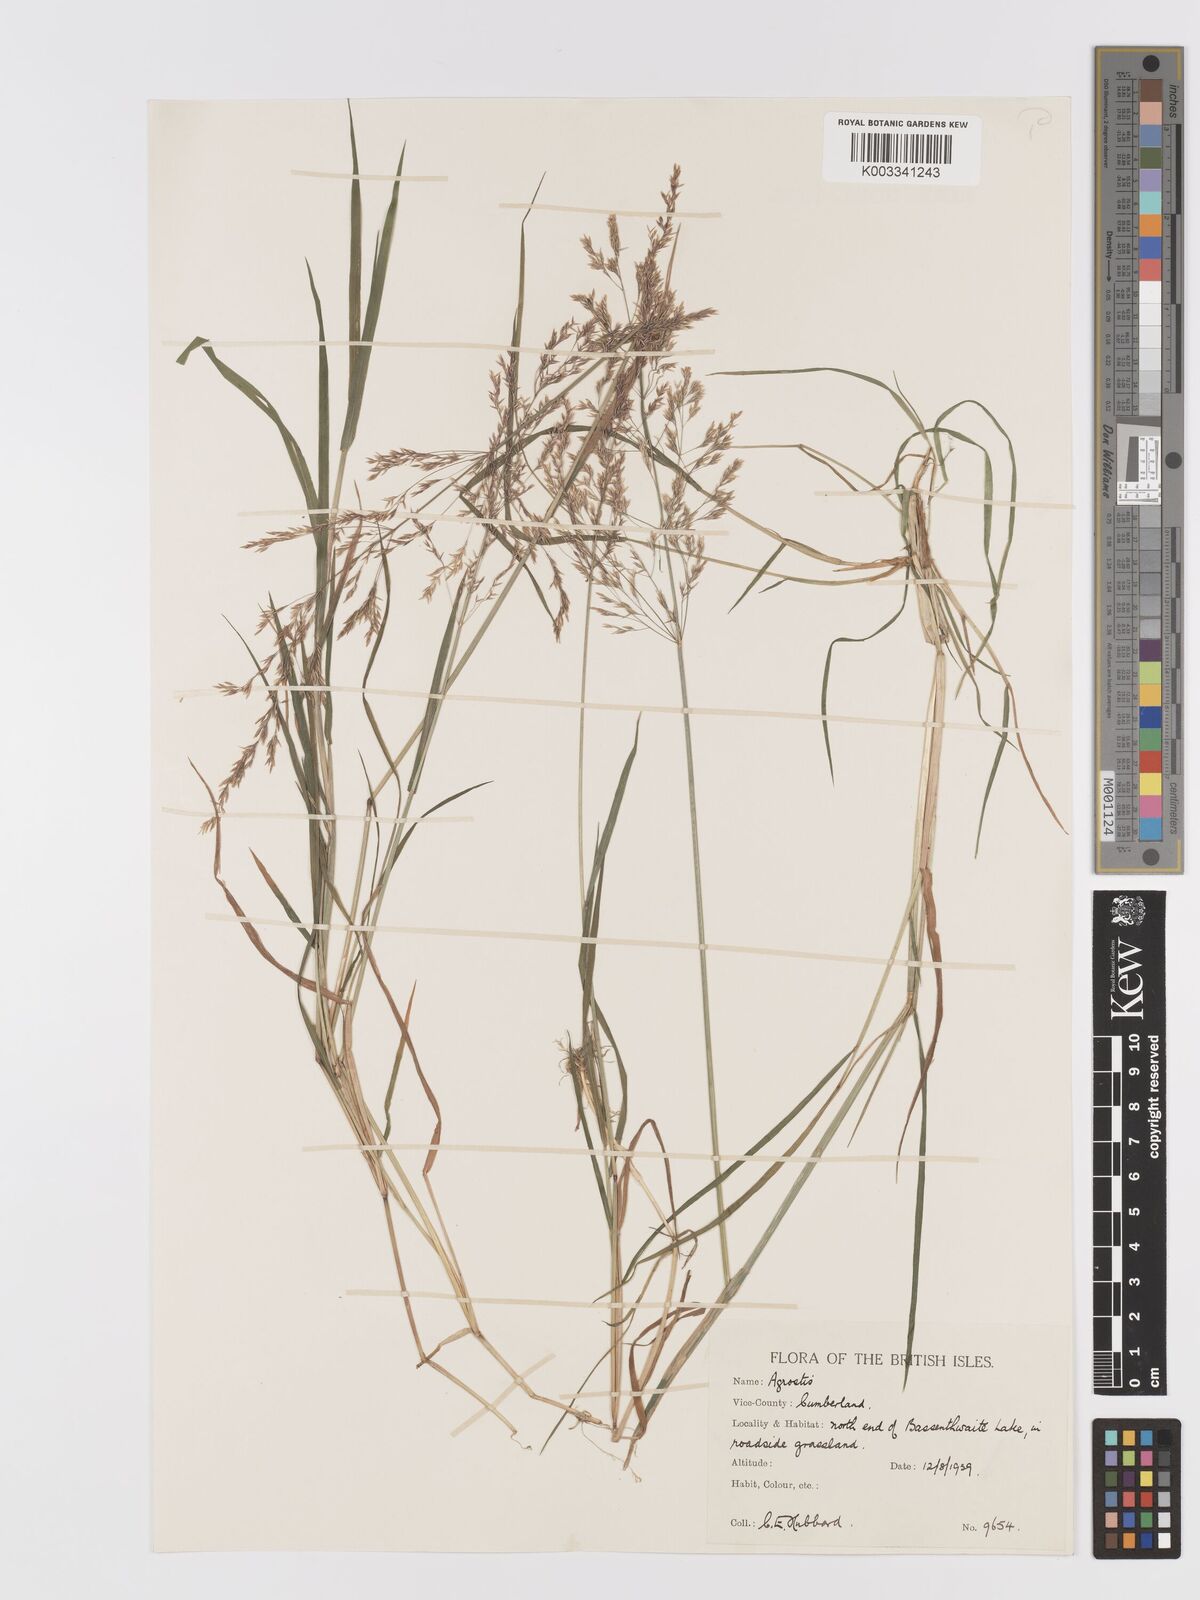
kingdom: Plantae
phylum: Tracheophyta
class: Liliopsida
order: Poales
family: Poaceae
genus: Agrostis
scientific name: Agrostis gigantea
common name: Black bent
